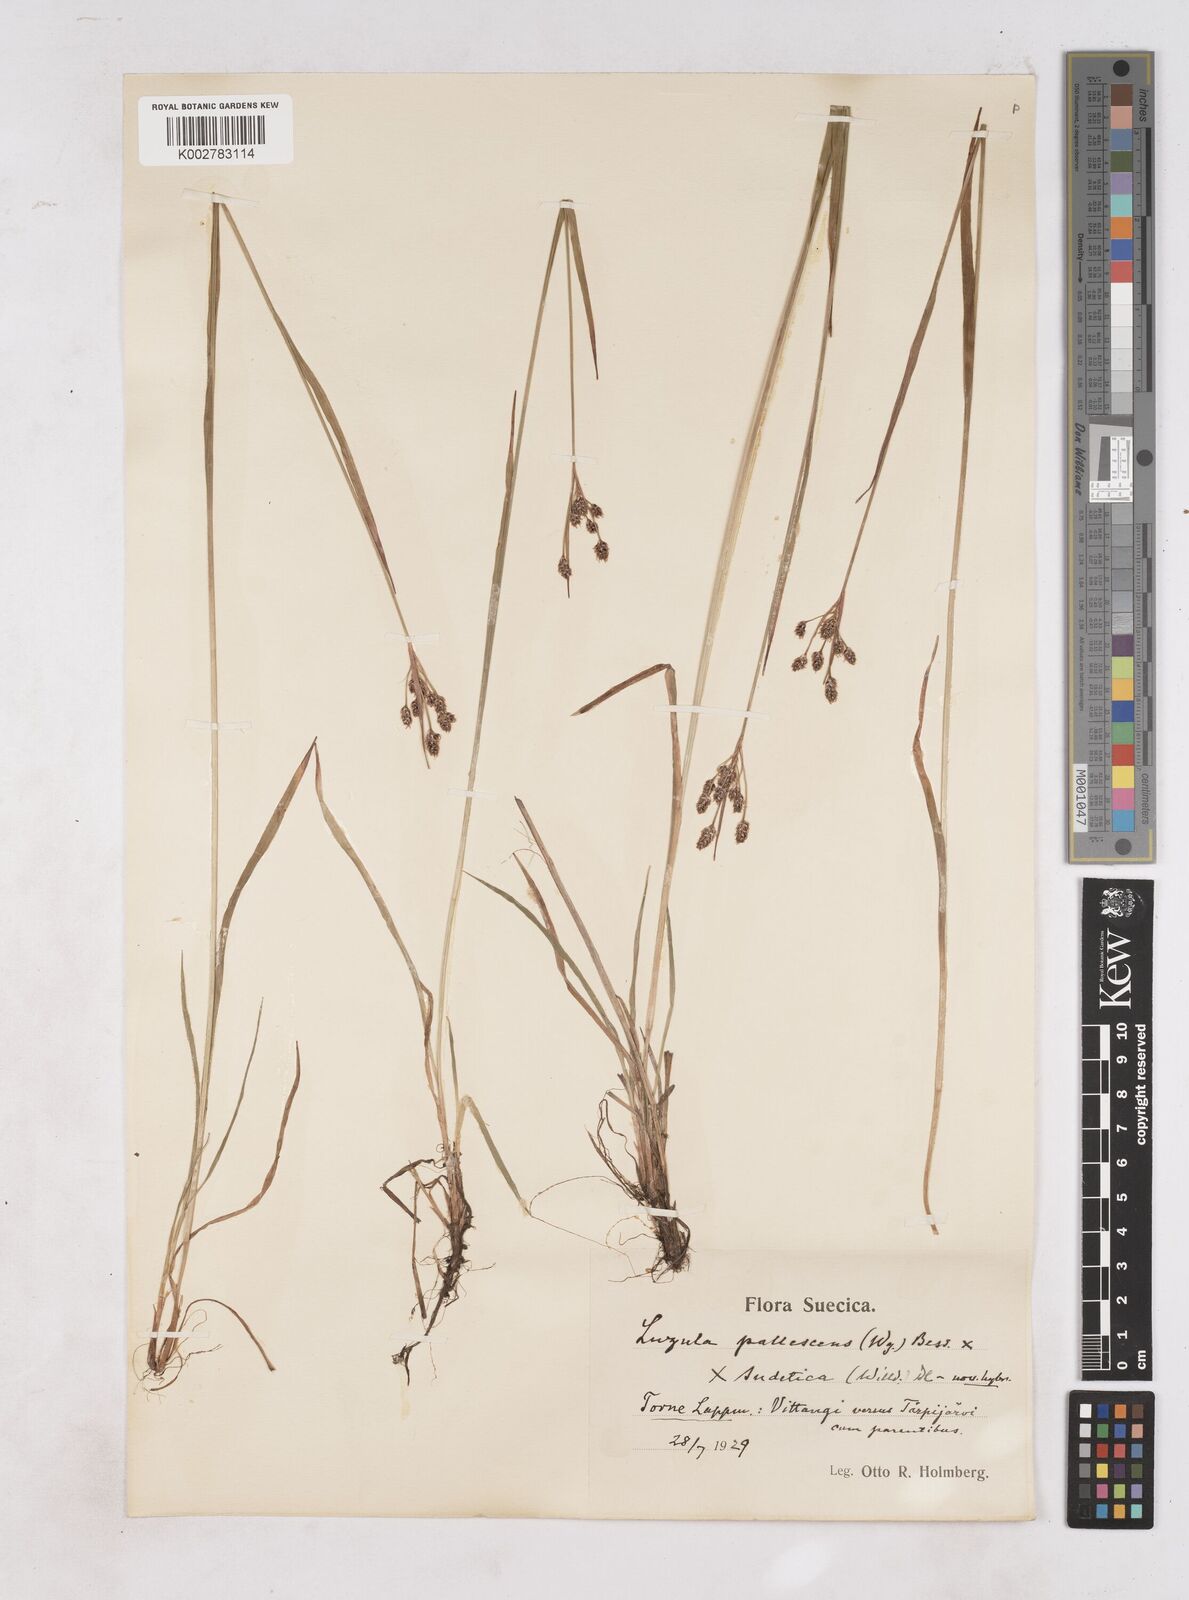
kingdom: Plantae
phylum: Tracheophyta
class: Liliopsida
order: Poales
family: Juncaceae
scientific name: Juncaceae
